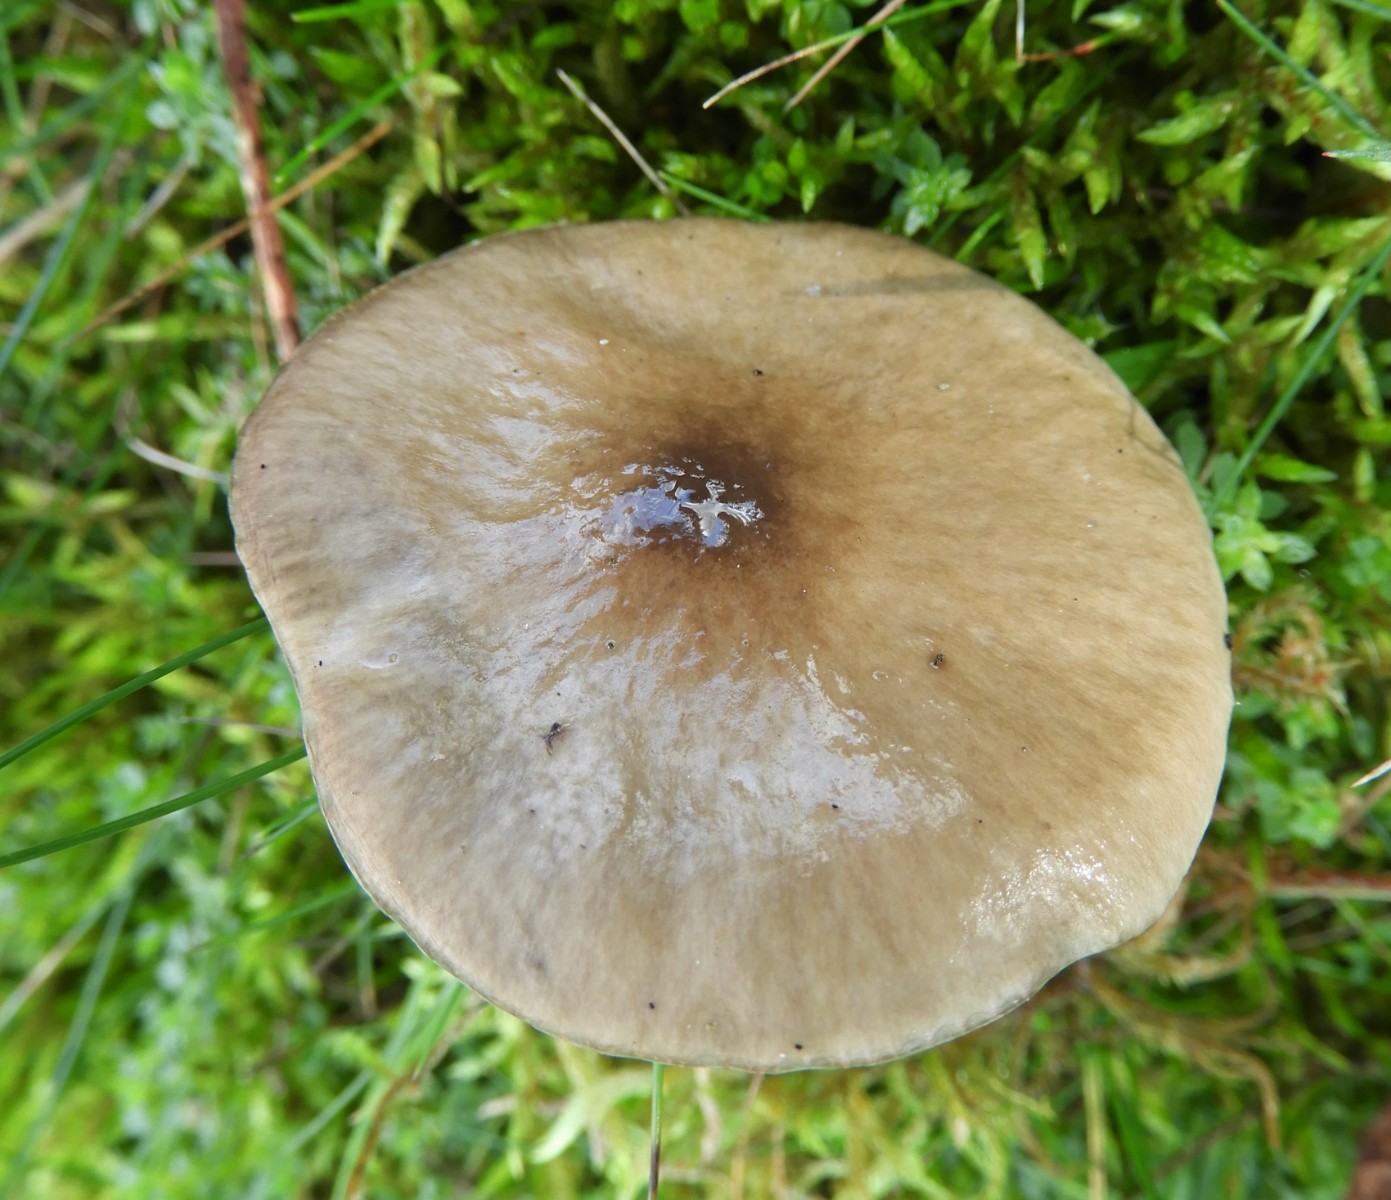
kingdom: Fungi
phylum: Basidiomycota
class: Agaricomycetes
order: Agaricales
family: Hygrophoraceae
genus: Gliophorus
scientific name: Gliophorus irrigatus
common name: slimet vokshat
